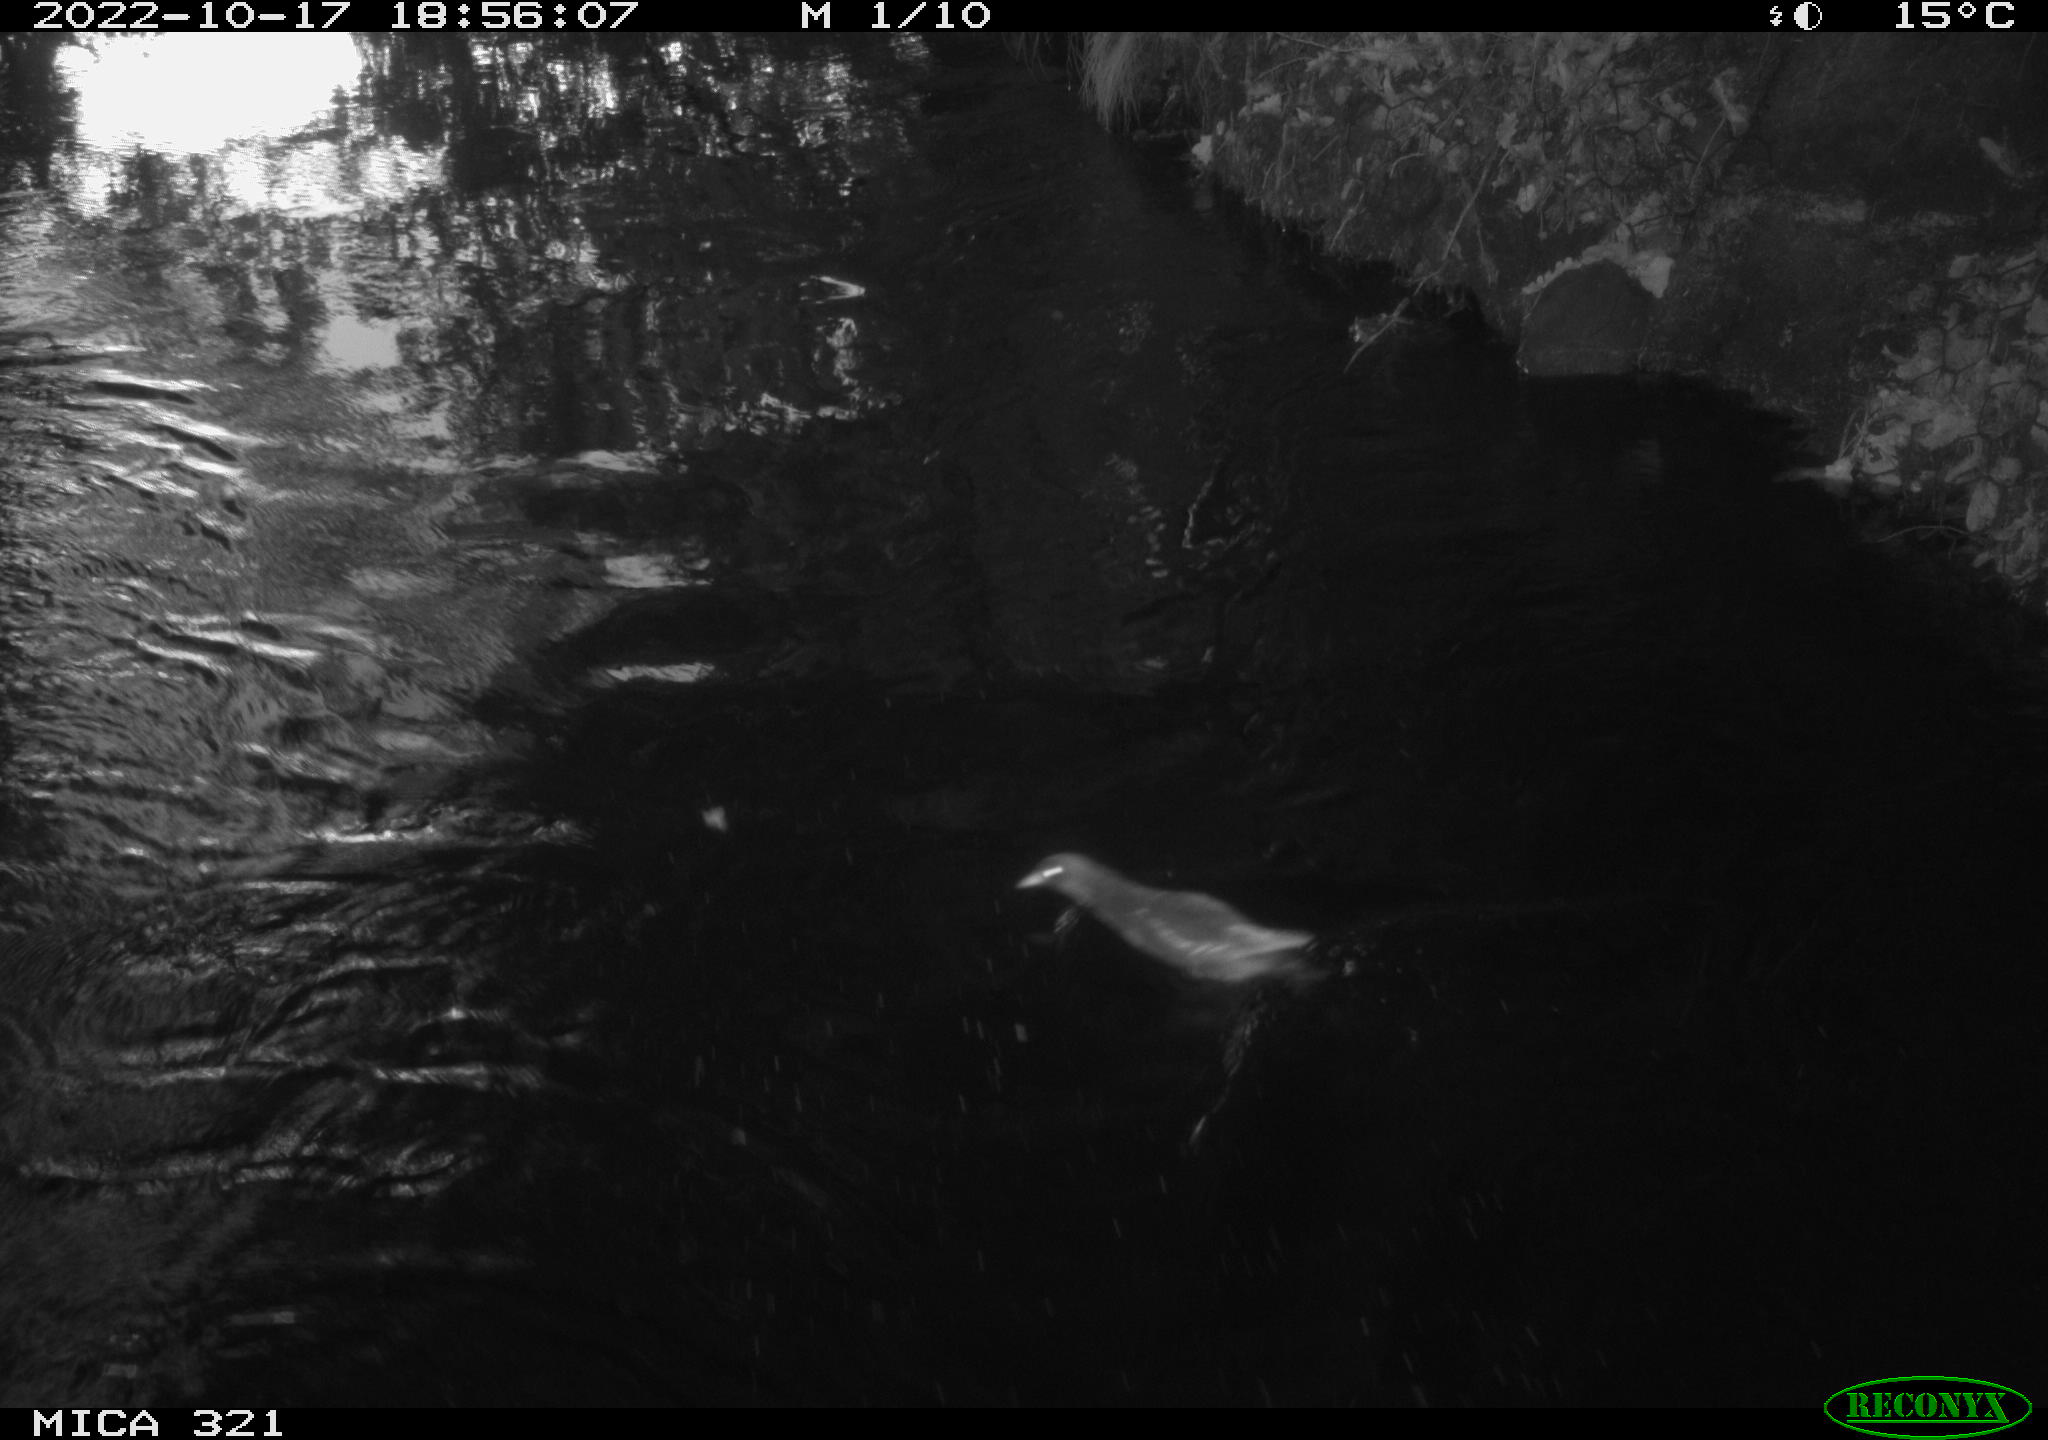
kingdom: Animalia
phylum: Chordata
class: Aves
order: Gruiformes
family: Rallidae
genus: Gallinula
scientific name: Gallinula chloropus
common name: Common moorhen
